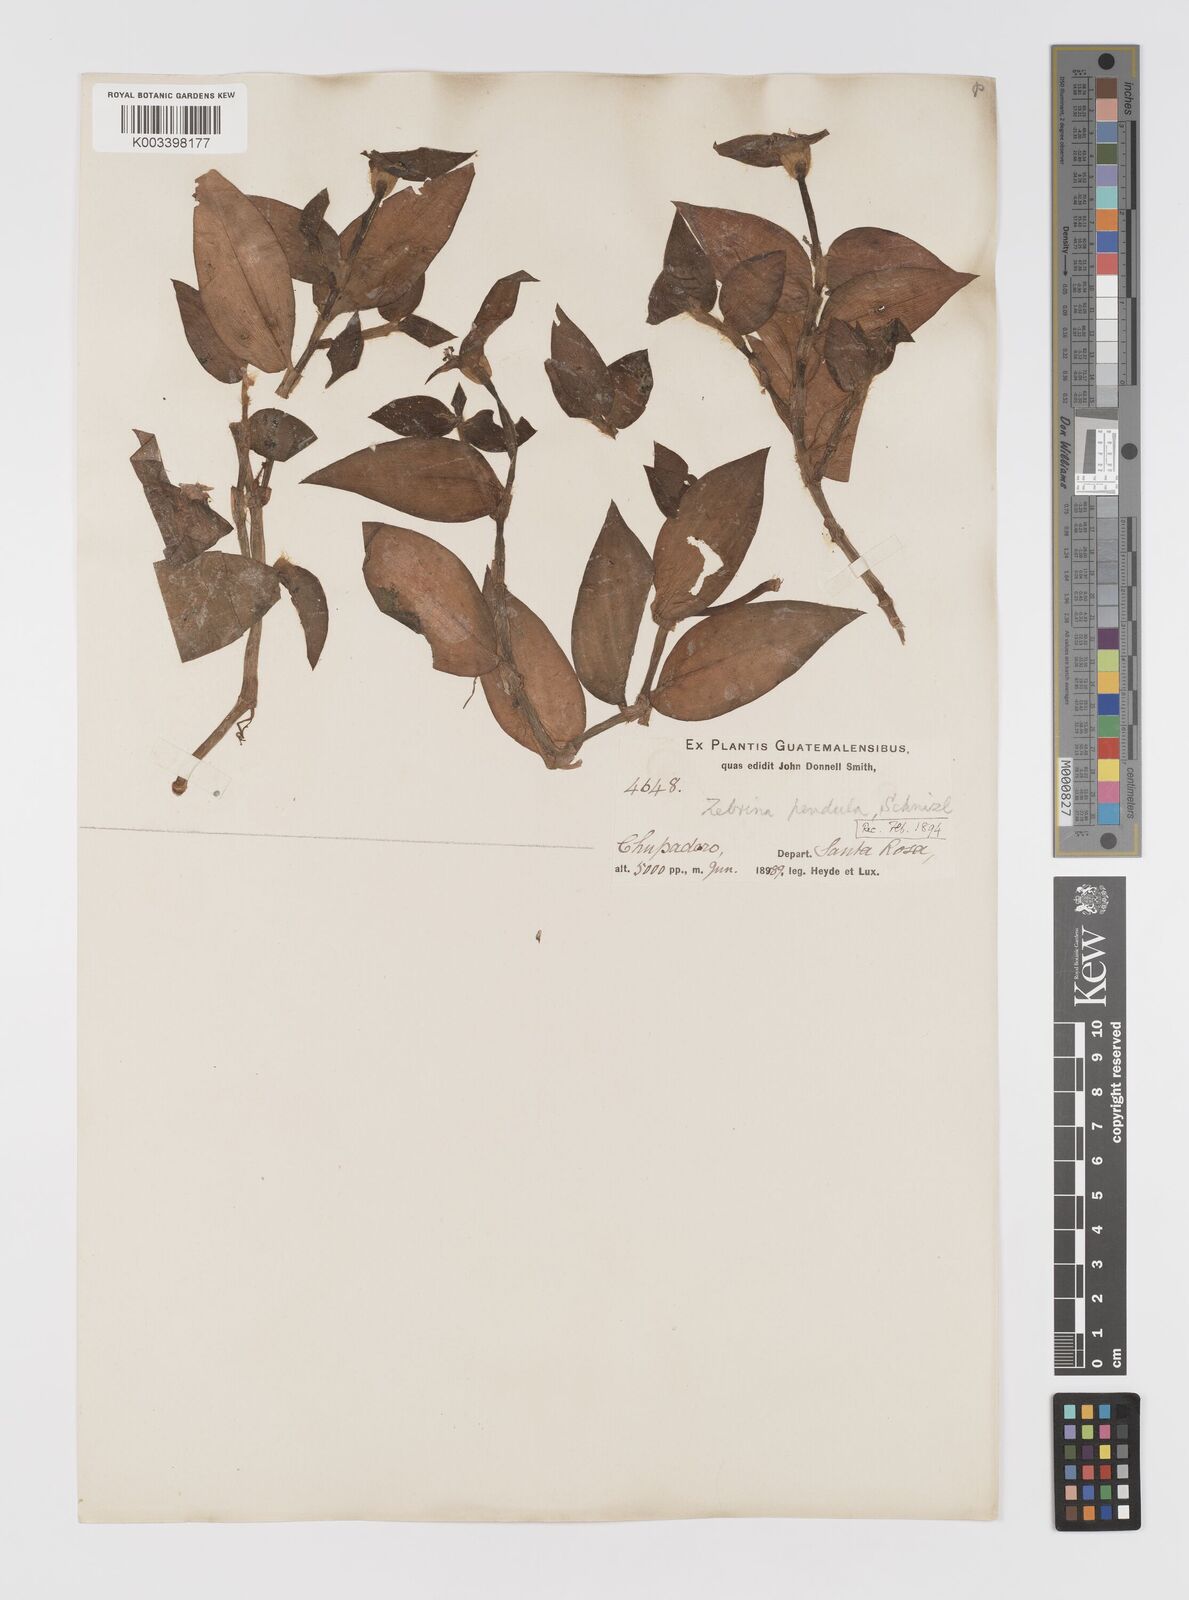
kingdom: Plantae
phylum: Tracheophyta
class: Liliopsida
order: Commelinales
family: Commelinaceae
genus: Tradescantia
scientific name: Tradescantia zebrina
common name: Inchplant
